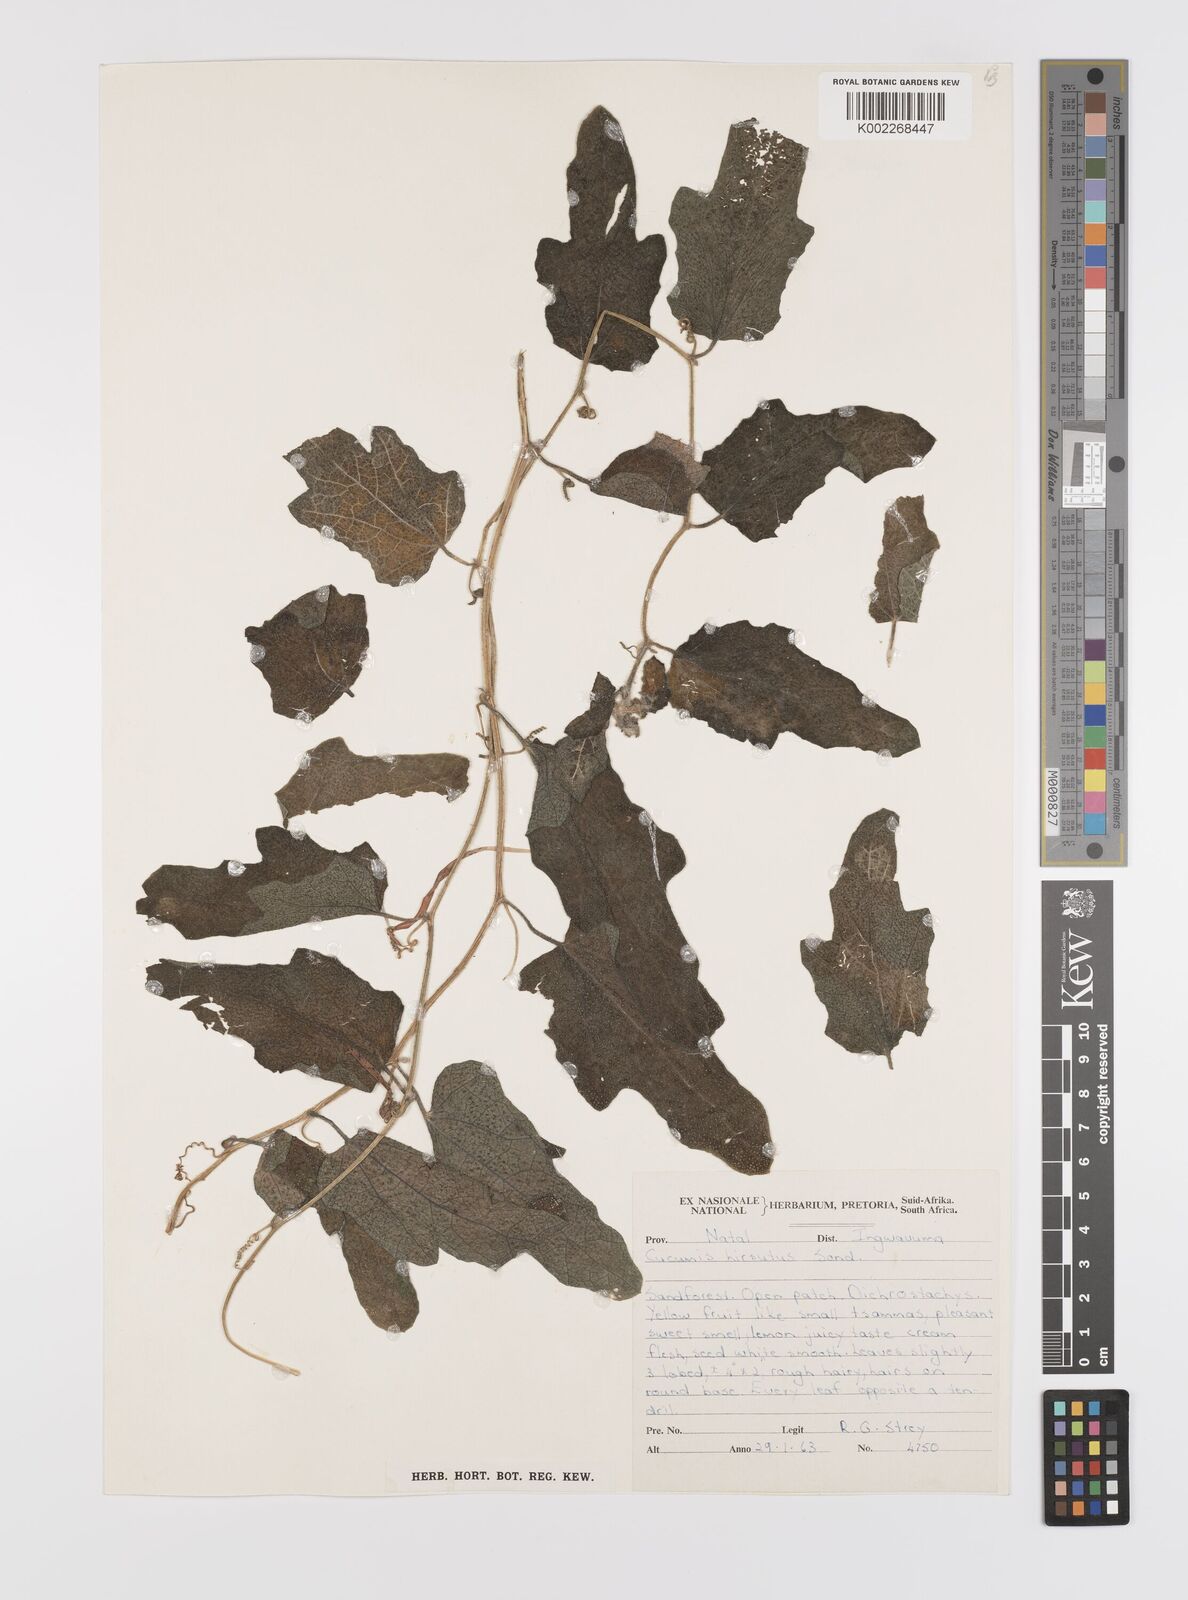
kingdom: Plantae
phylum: Tracheophyta
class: Magnoliopsida
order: Cucurbitales
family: Cucurbitaceae
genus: Cucumis
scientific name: Cucumis hirsutus
